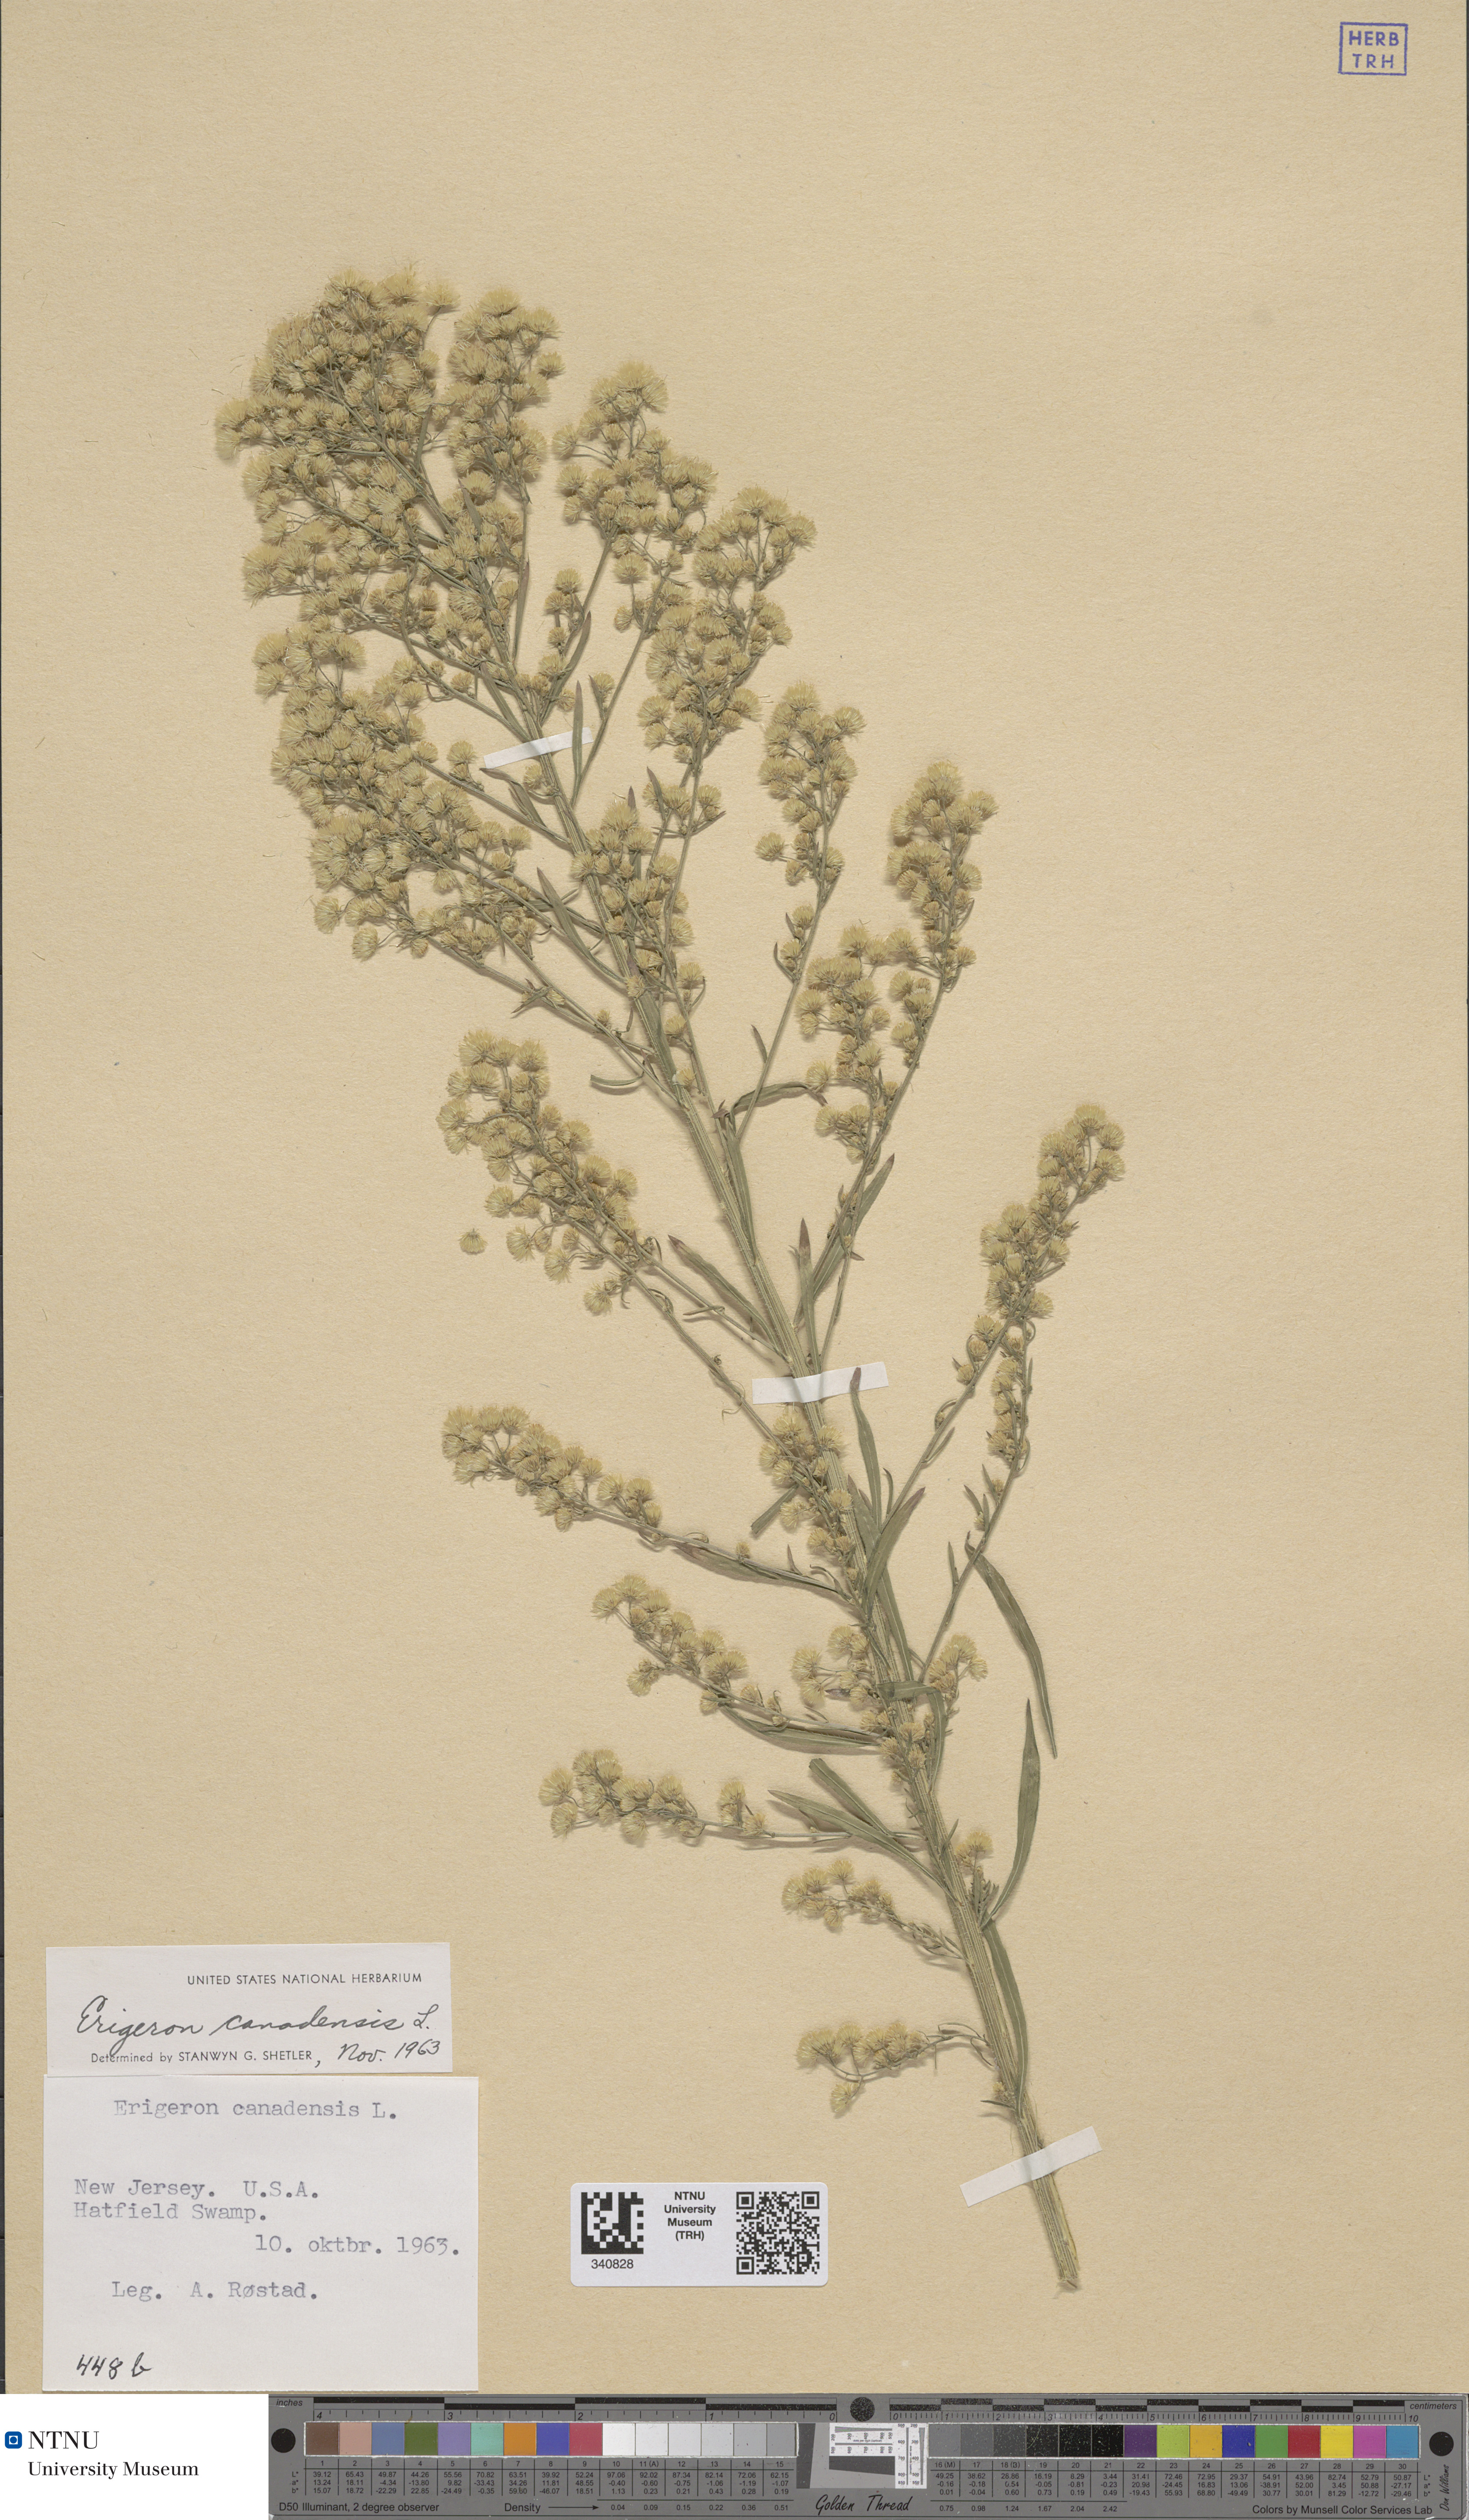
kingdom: Plantae
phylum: Tracheophyta
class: Magnoliopsida
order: Asterales
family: Asteraceae
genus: Erigeron
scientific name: Erigeron canadensis
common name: Canadian fleabane
